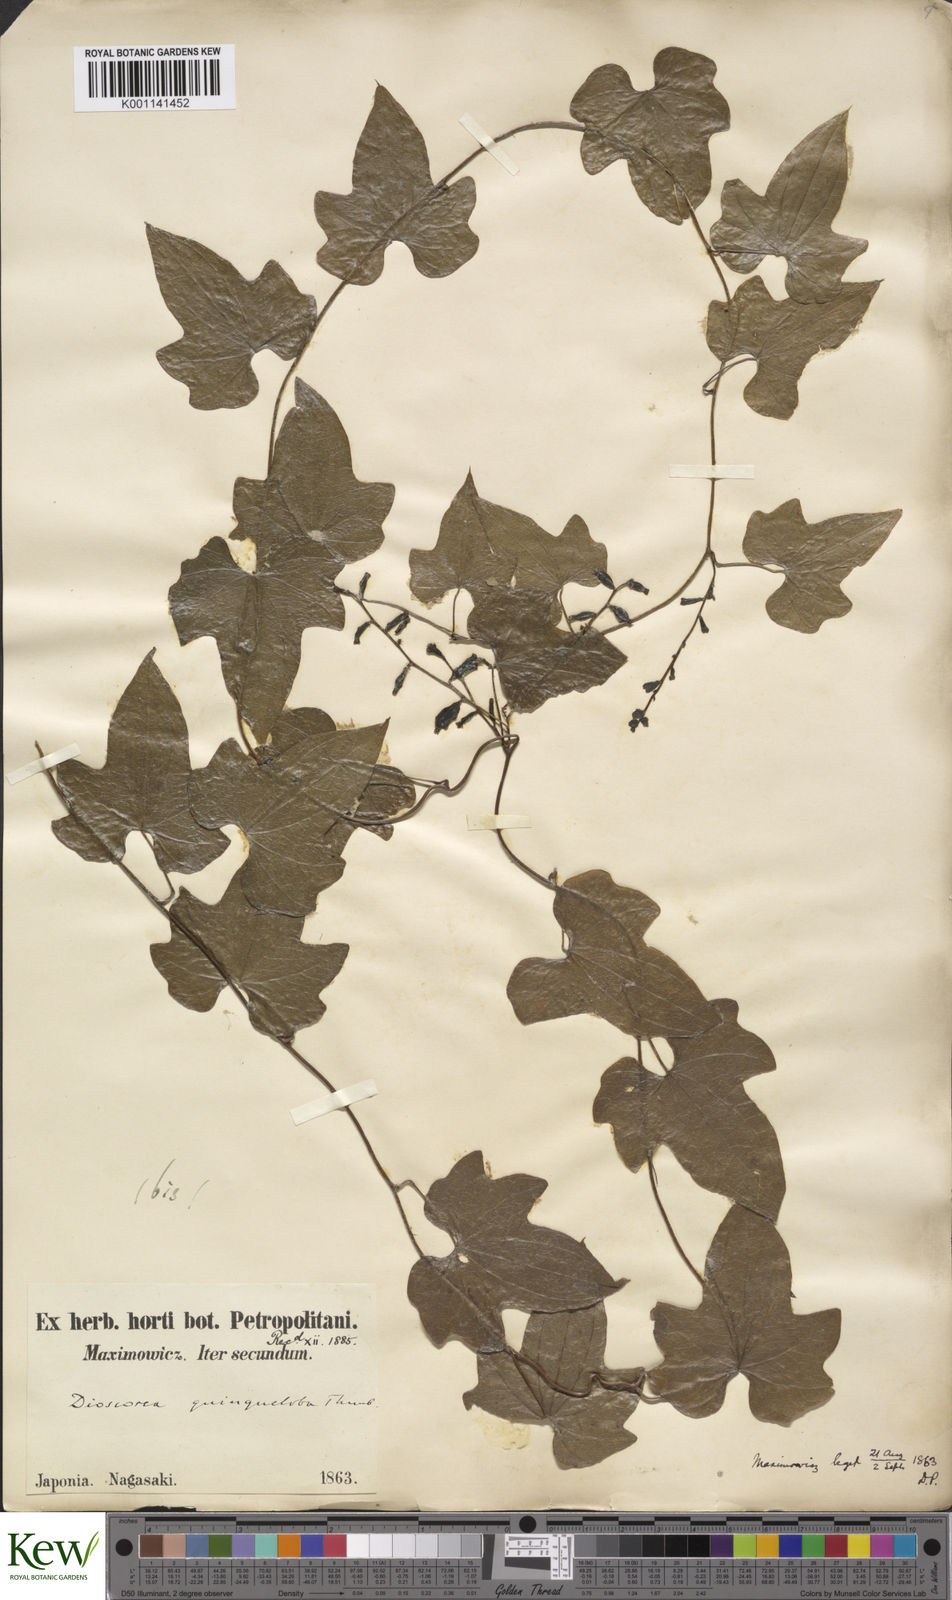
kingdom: Plantae
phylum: Tracheophyta
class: Liliopsida
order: Dioscoreales
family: Dioscoreaceae
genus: Dioscorea
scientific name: Dioscorea quinquelobata
